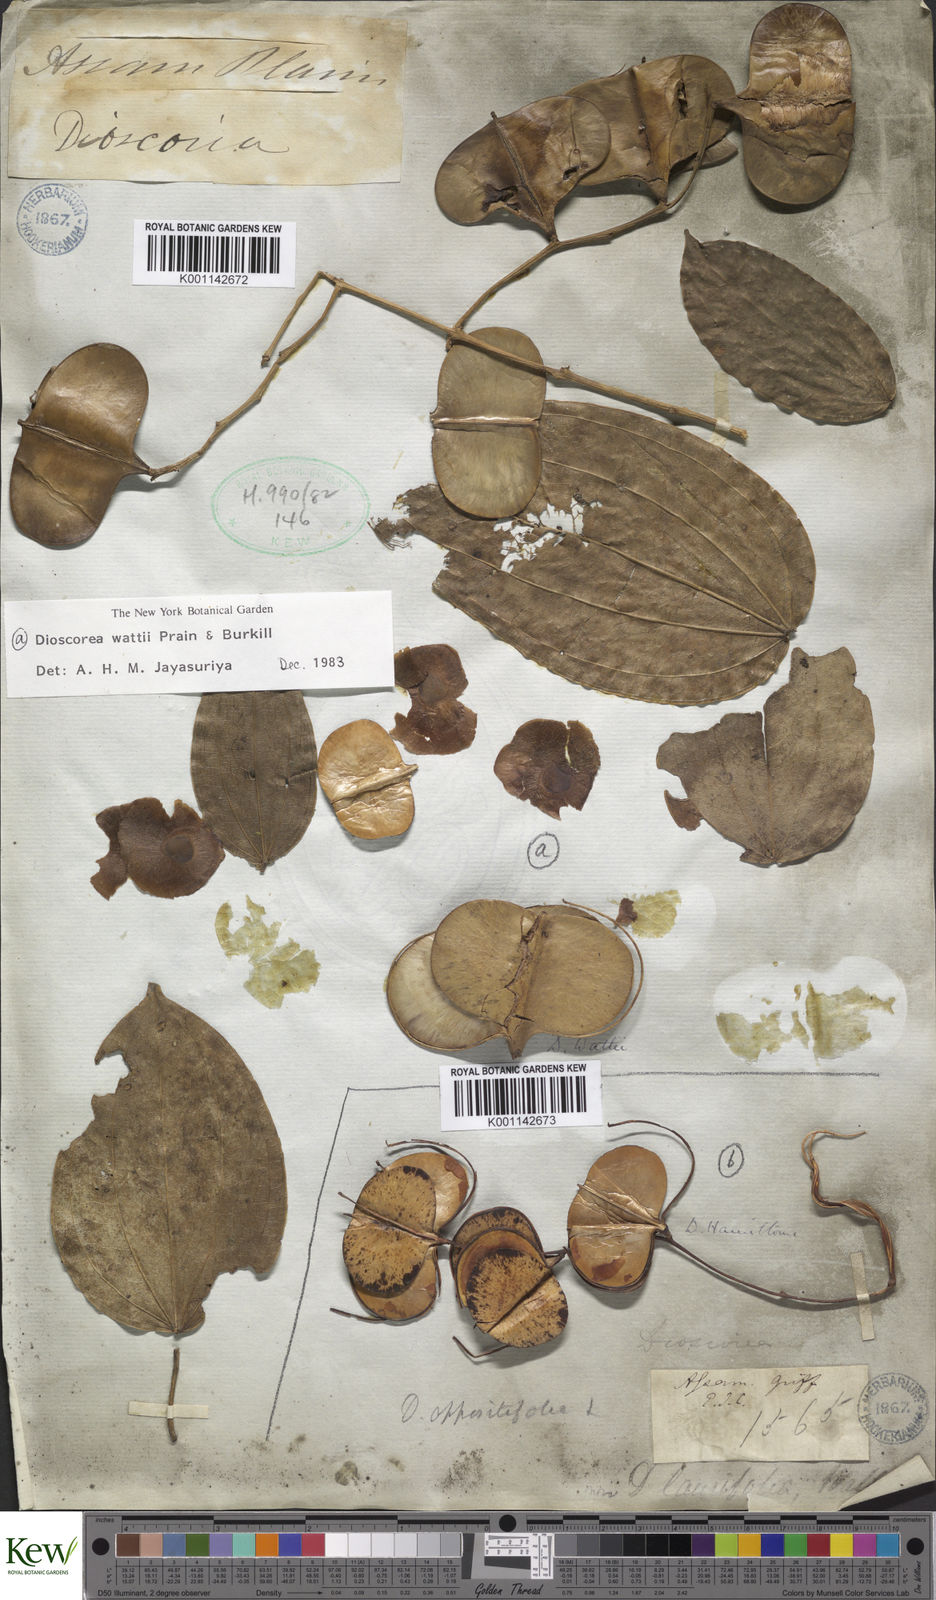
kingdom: Plantae
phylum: Tracheophyta
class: Liliopsida
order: Dioscoreales
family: Dioscoreaceae
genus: Dioscorea
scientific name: Dioscorea wattii
